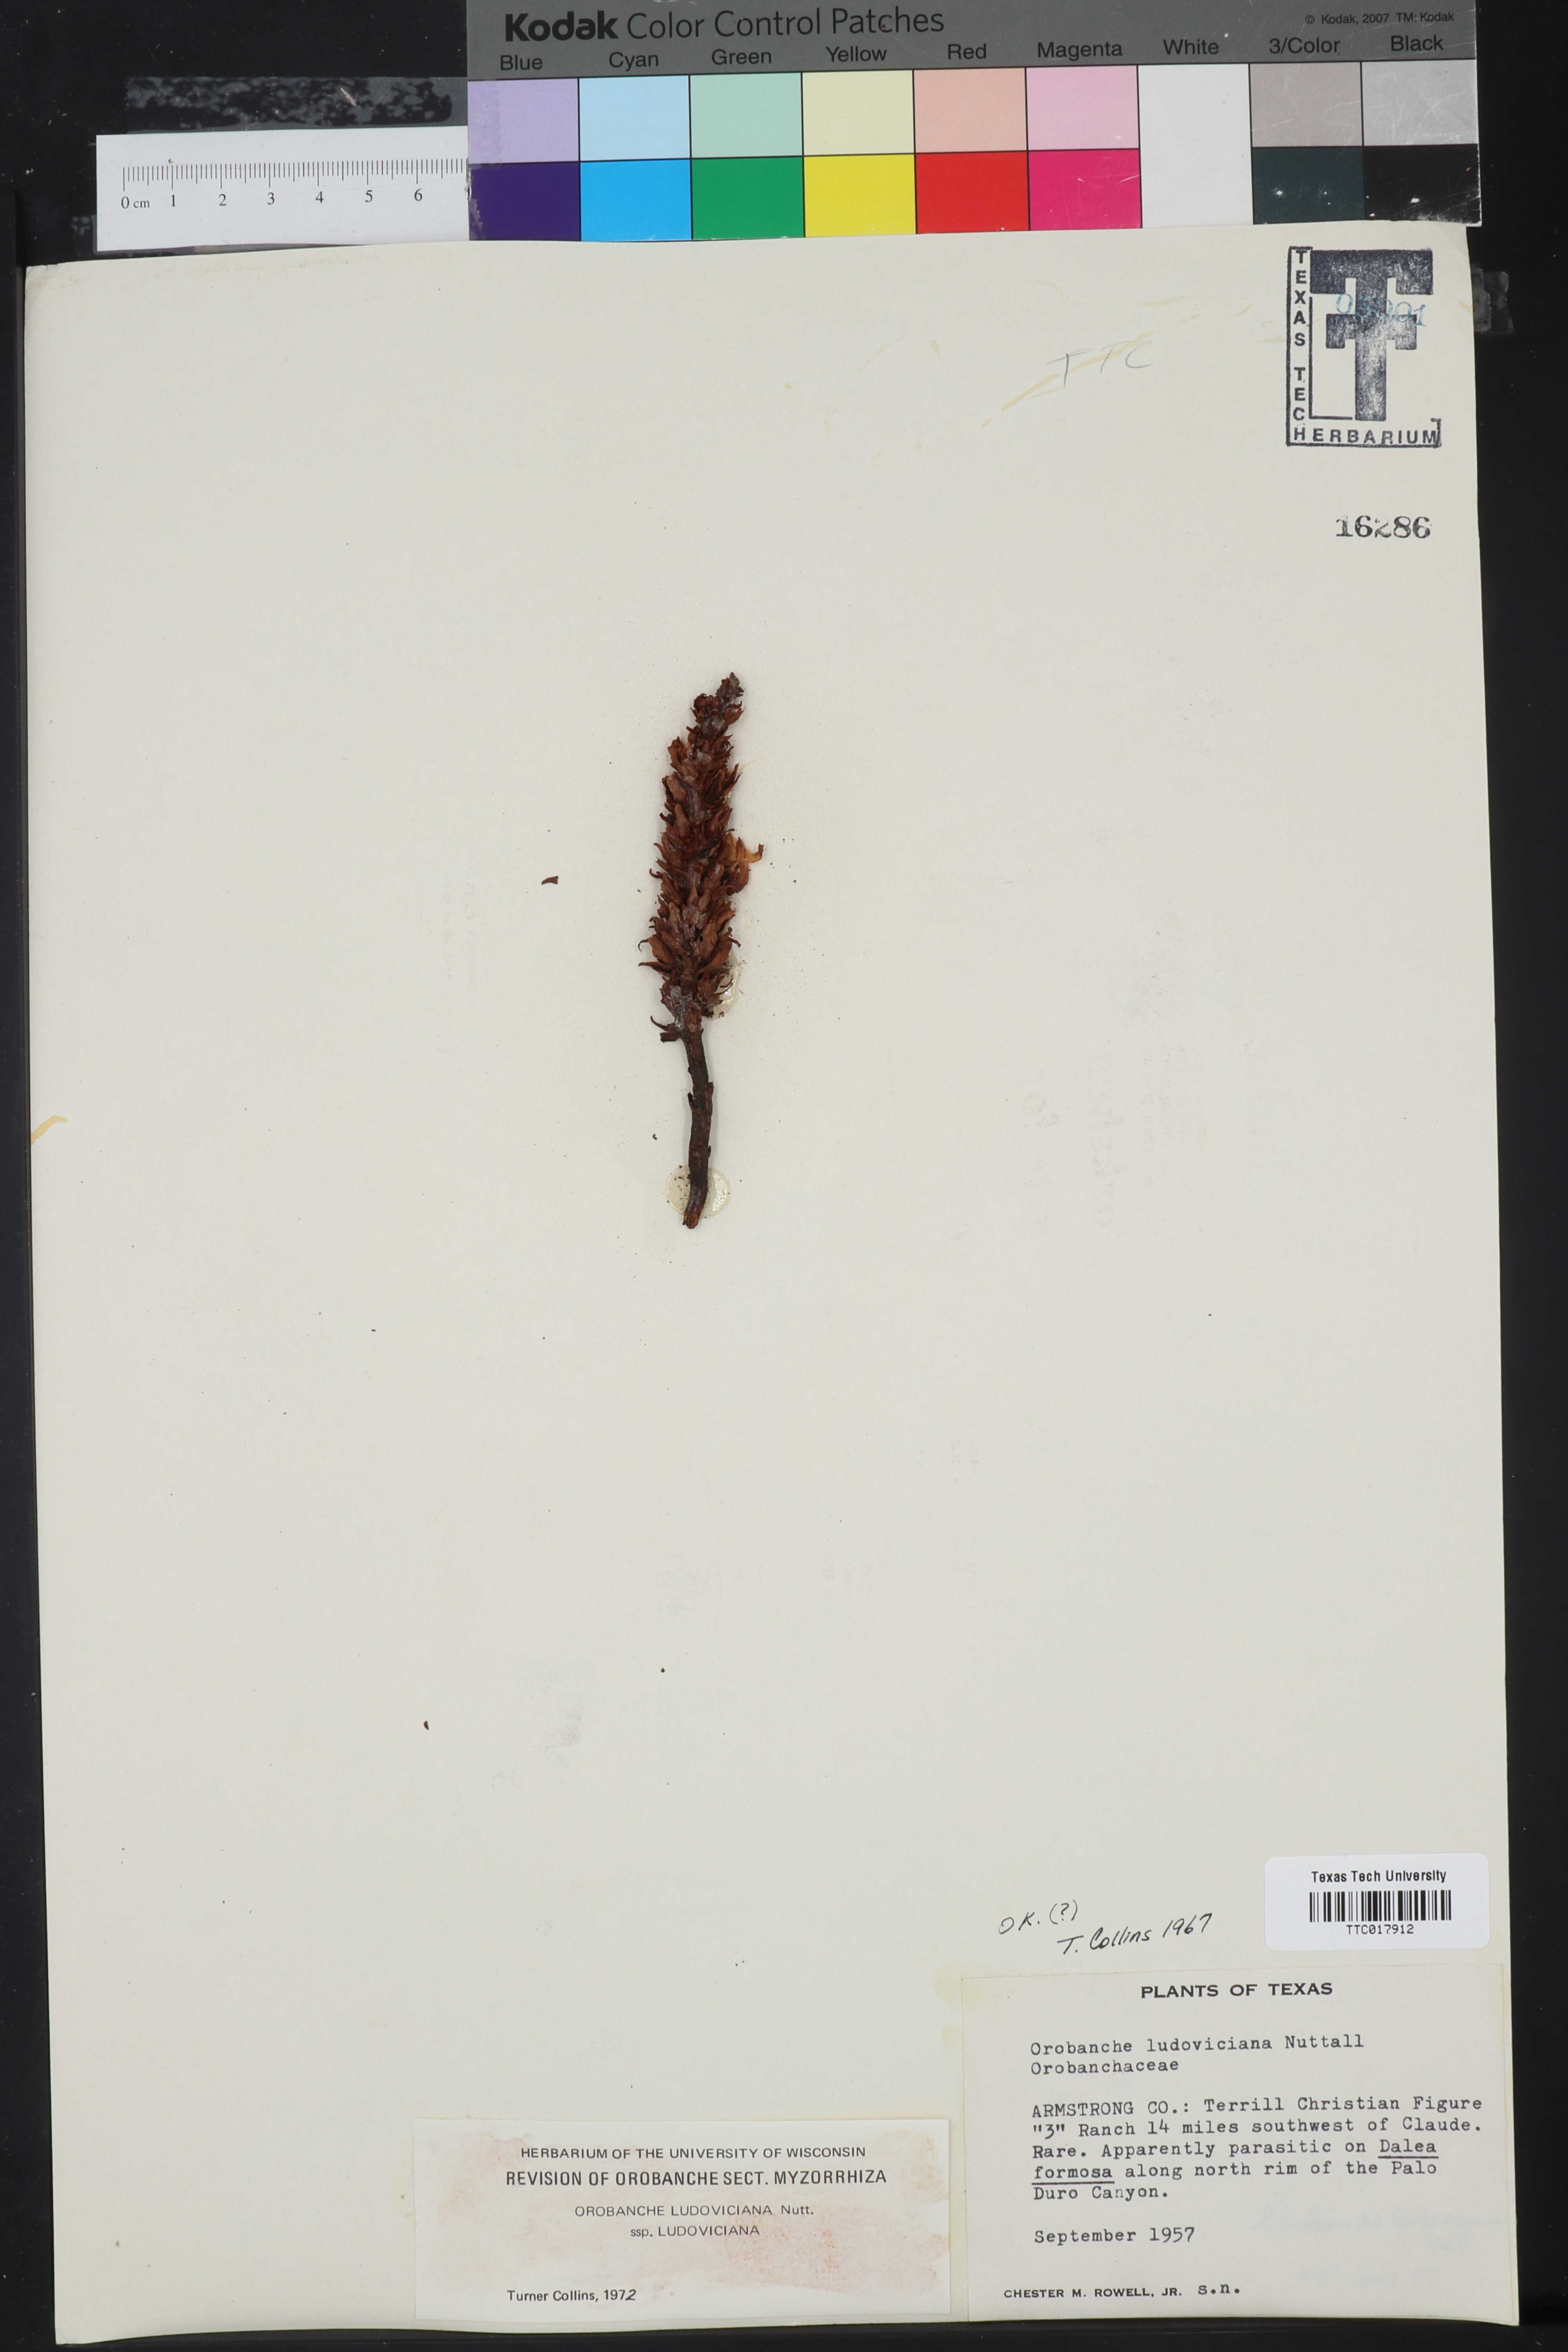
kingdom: Plantae
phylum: Tracheophyta
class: Magnoliopsida
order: Lamiales
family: Orobanchaceae
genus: Aphyllon
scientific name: Aphyllon ludovicianum
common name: Louisiana broomrape
